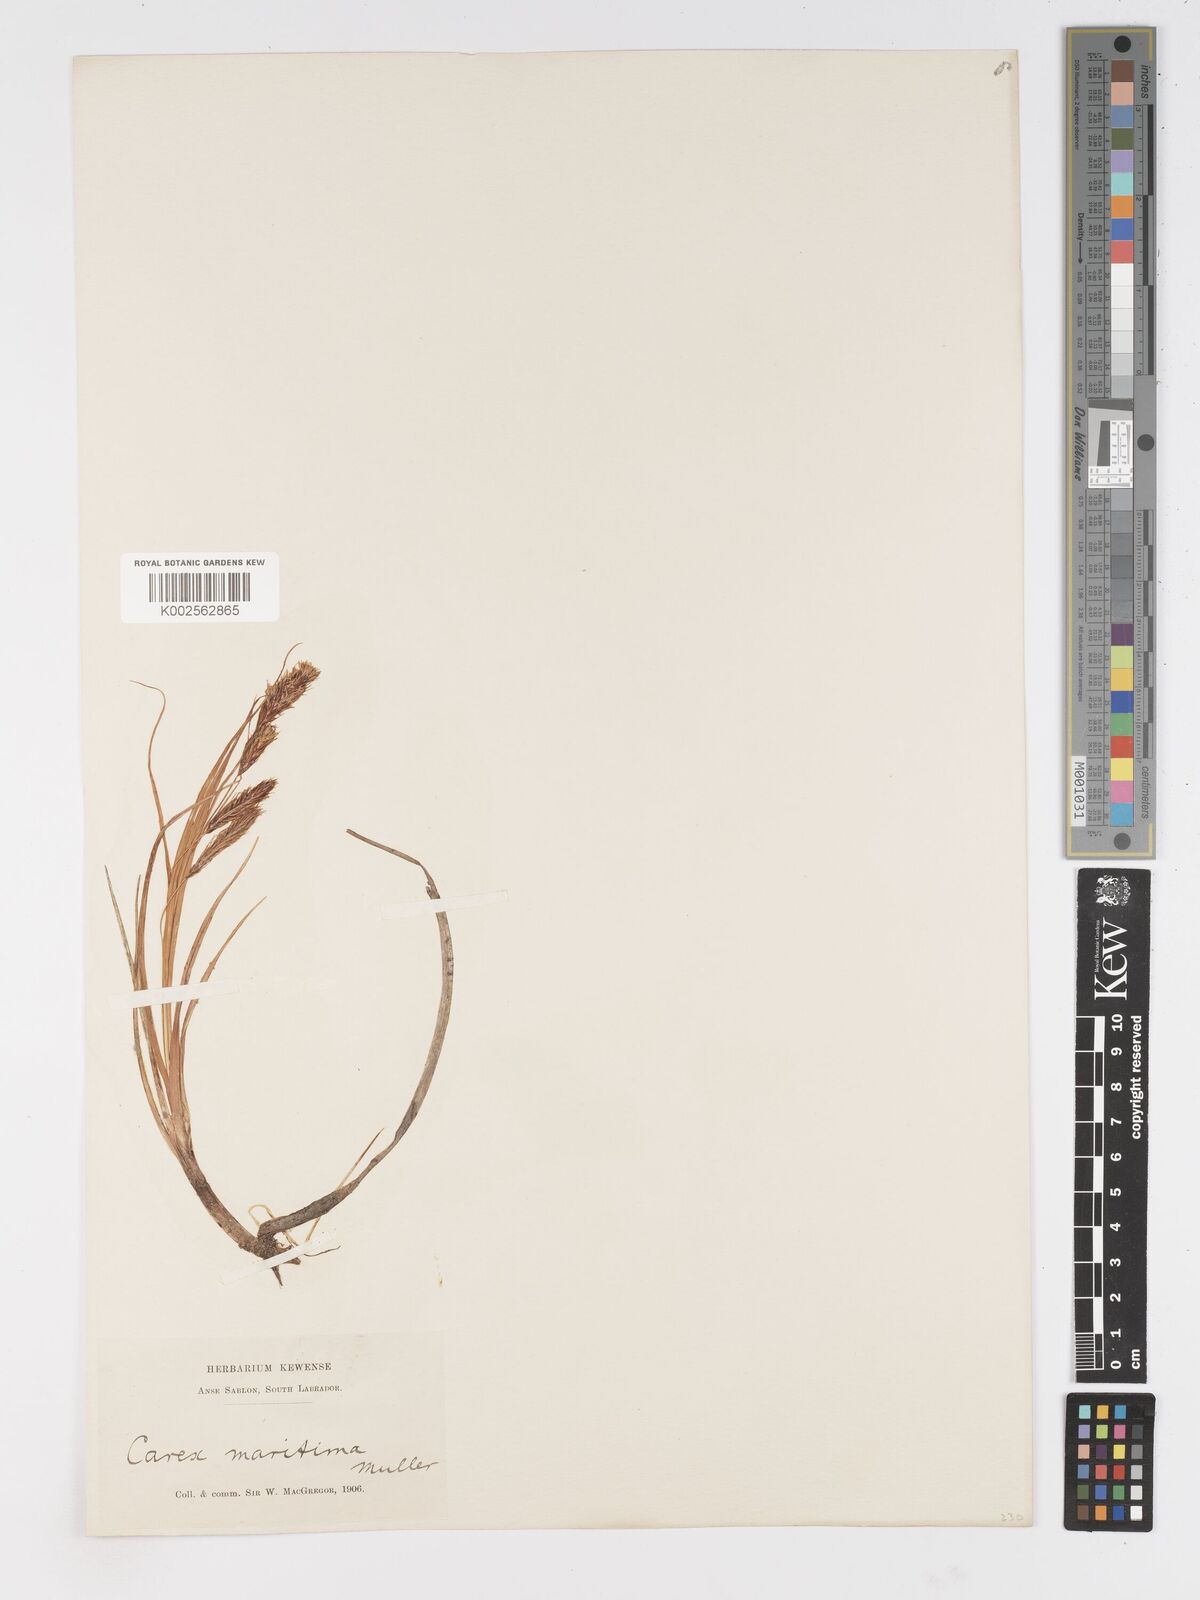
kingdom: Plantae
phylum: Tracheophyta
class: Liliopsida
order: Poales
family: Cyperaceae
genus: Carex
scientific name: Carex paleacea
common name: Chaffy sedge
